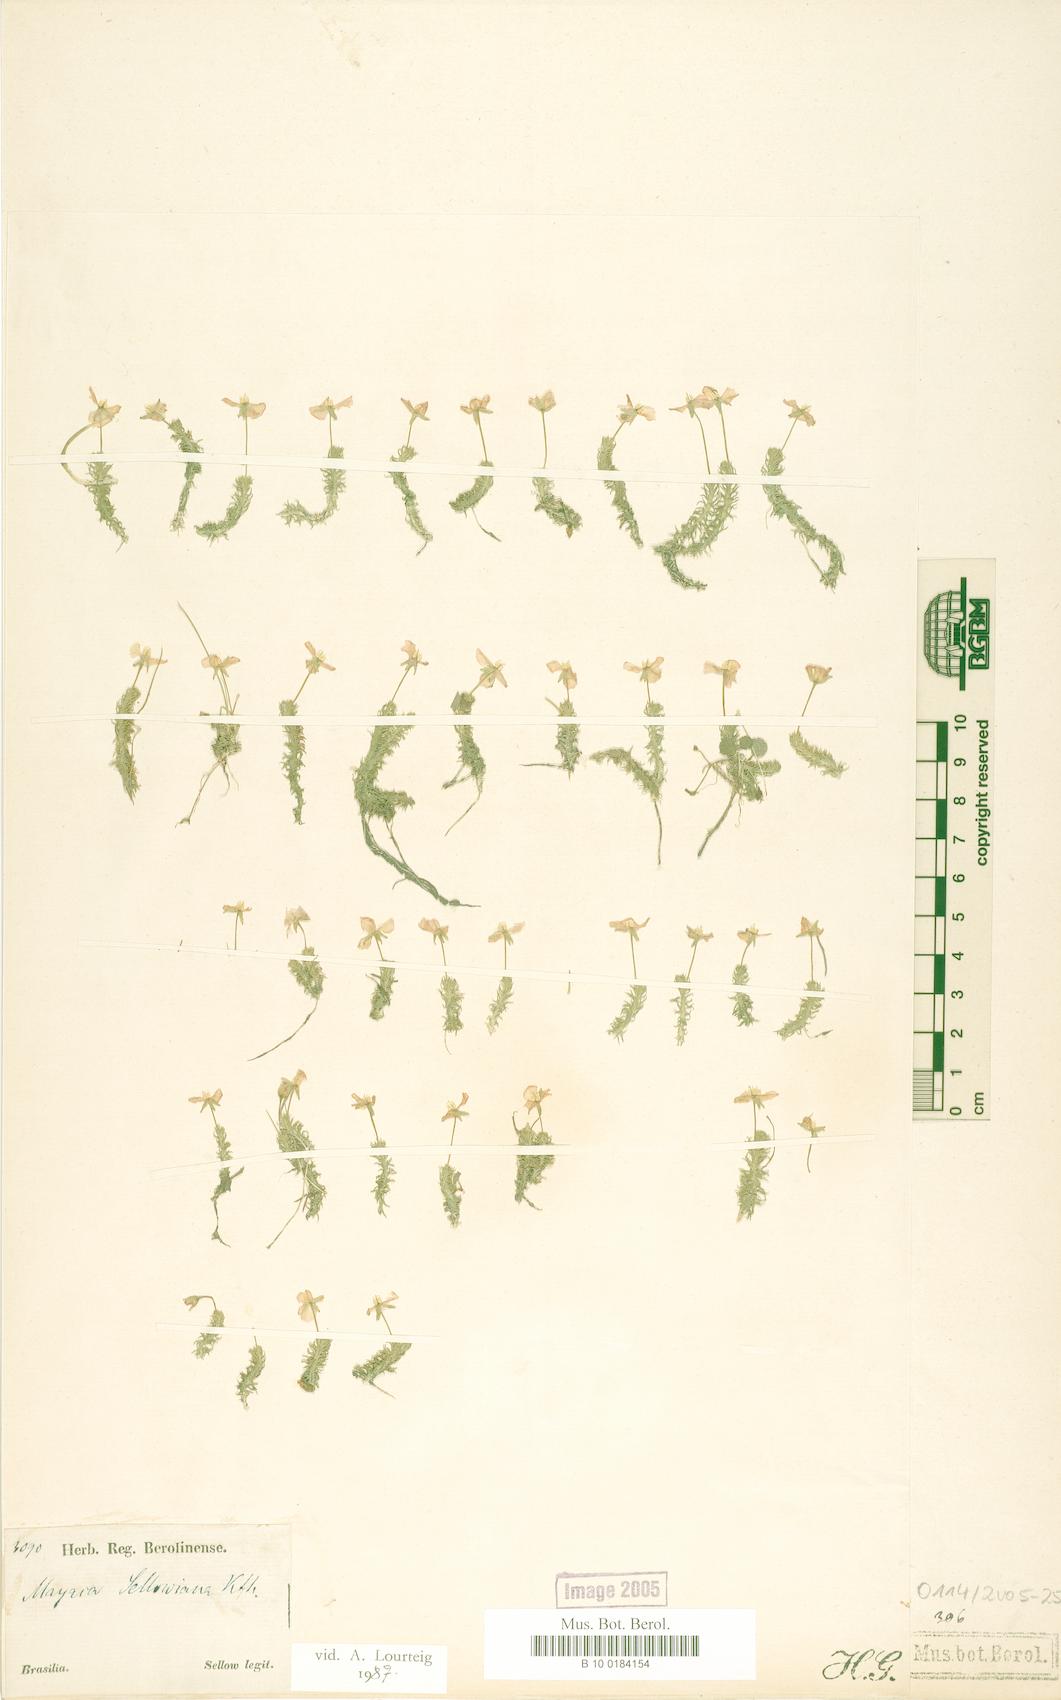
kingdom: Plantae
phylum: Tracheophyta
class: Liliopsida
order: Poales
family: Mayacaceae
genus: Mayaca
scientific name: Mayaca sellowiana
